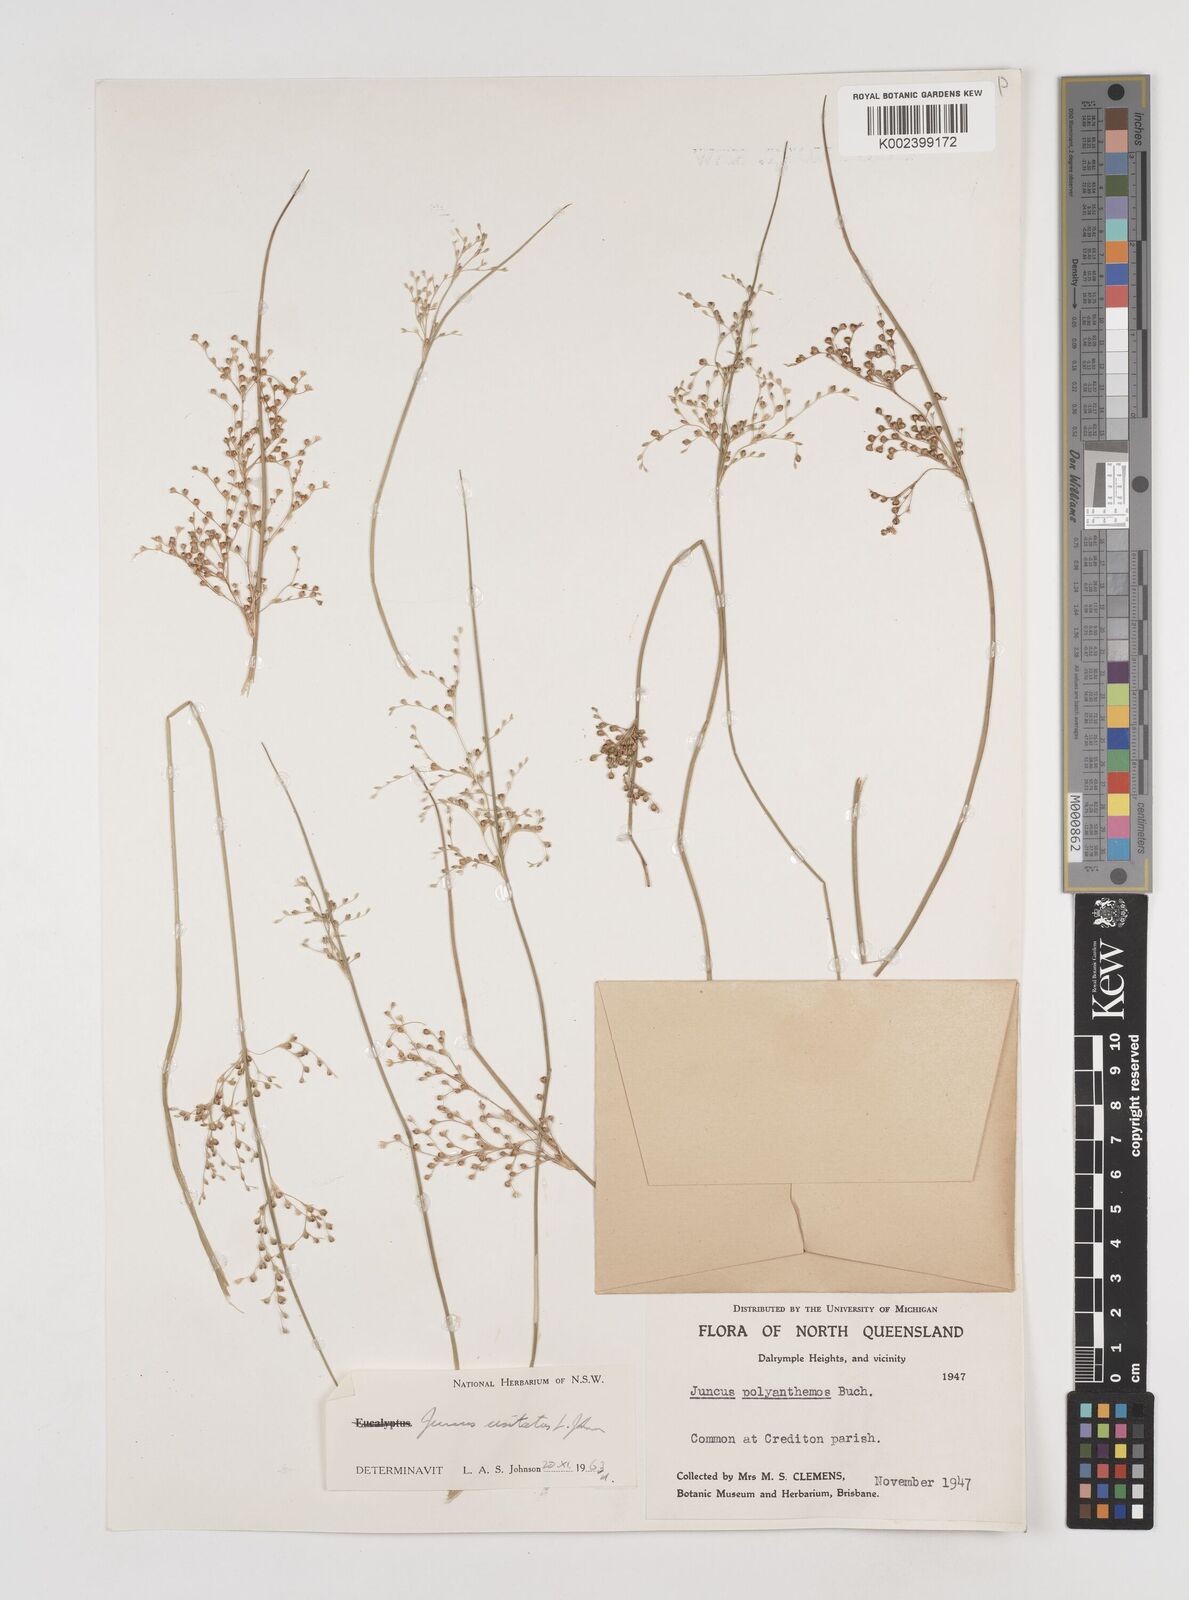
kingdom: Plantae
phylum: Tracheophyta
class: Liliopsida
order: Poales
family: Juncaceae
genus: Juncus
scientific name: Juncus usitatus
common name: Rush
